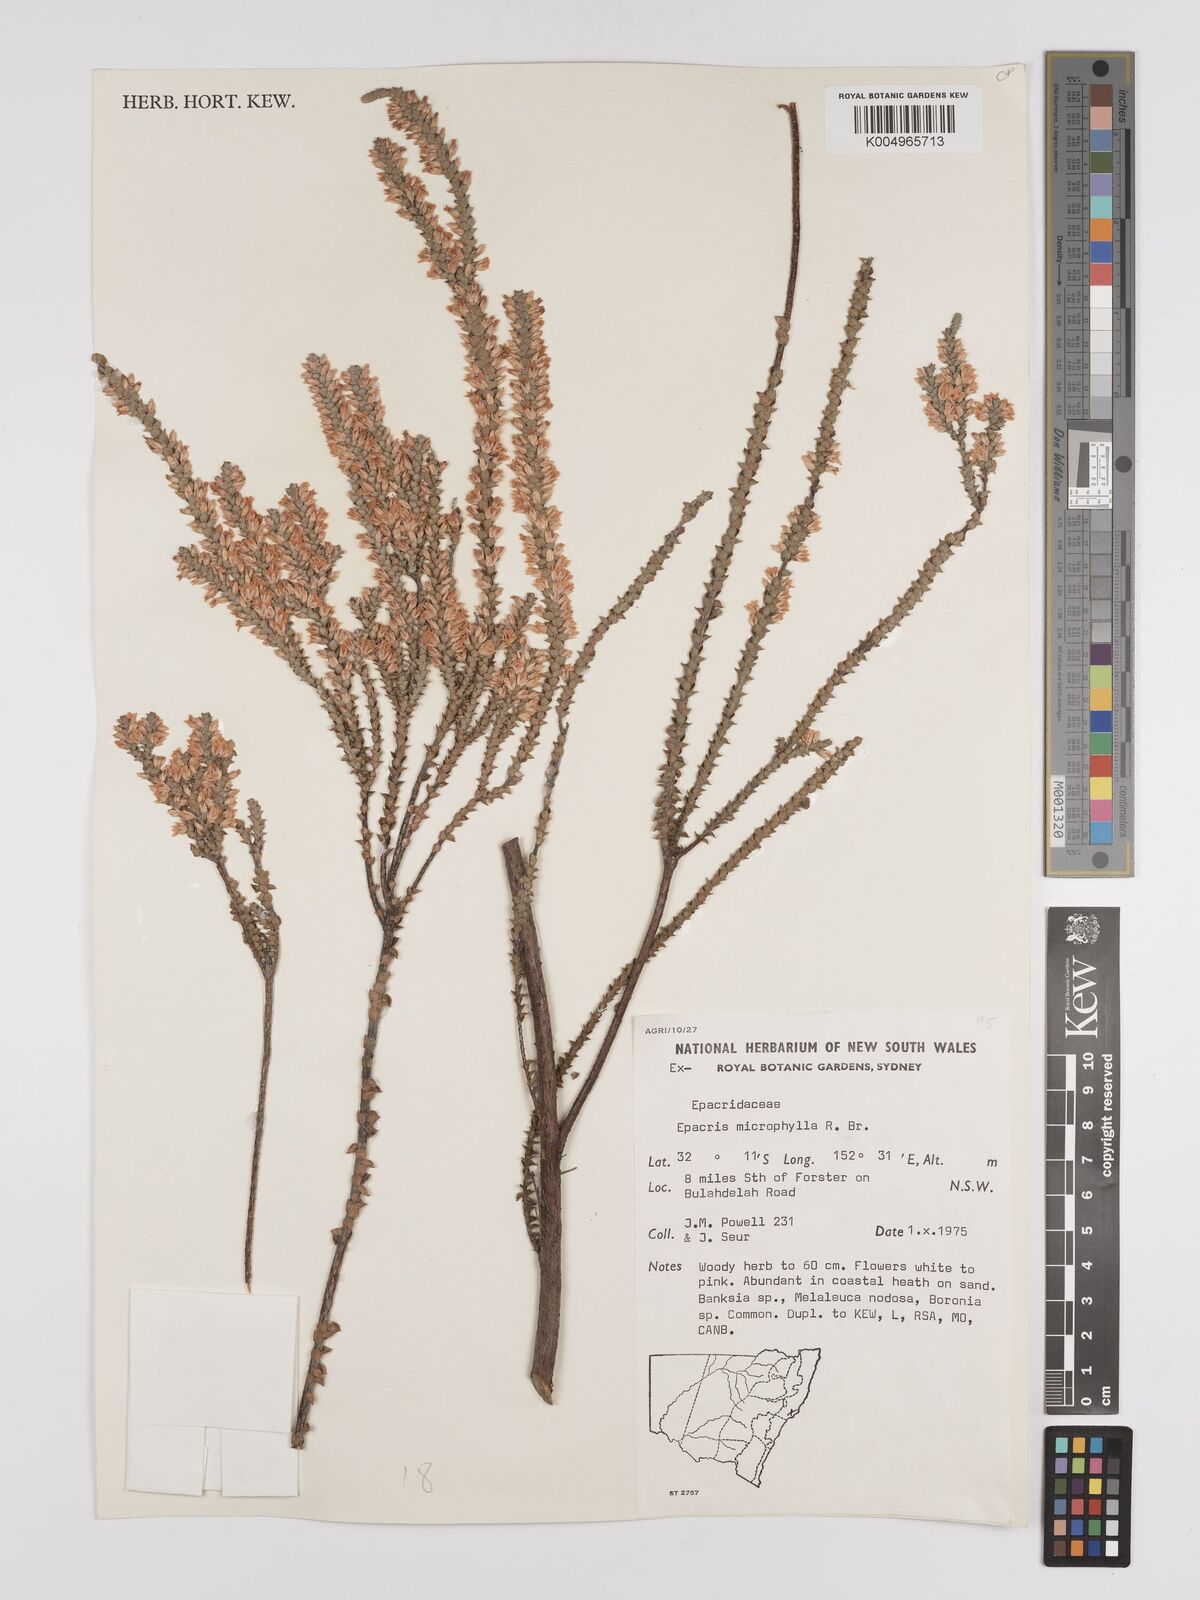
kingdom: Plantae
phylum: Tracheophyta
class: Magnoliopsida
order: Ericales
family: Ericaceae
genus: Epacris
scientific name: Epacris
